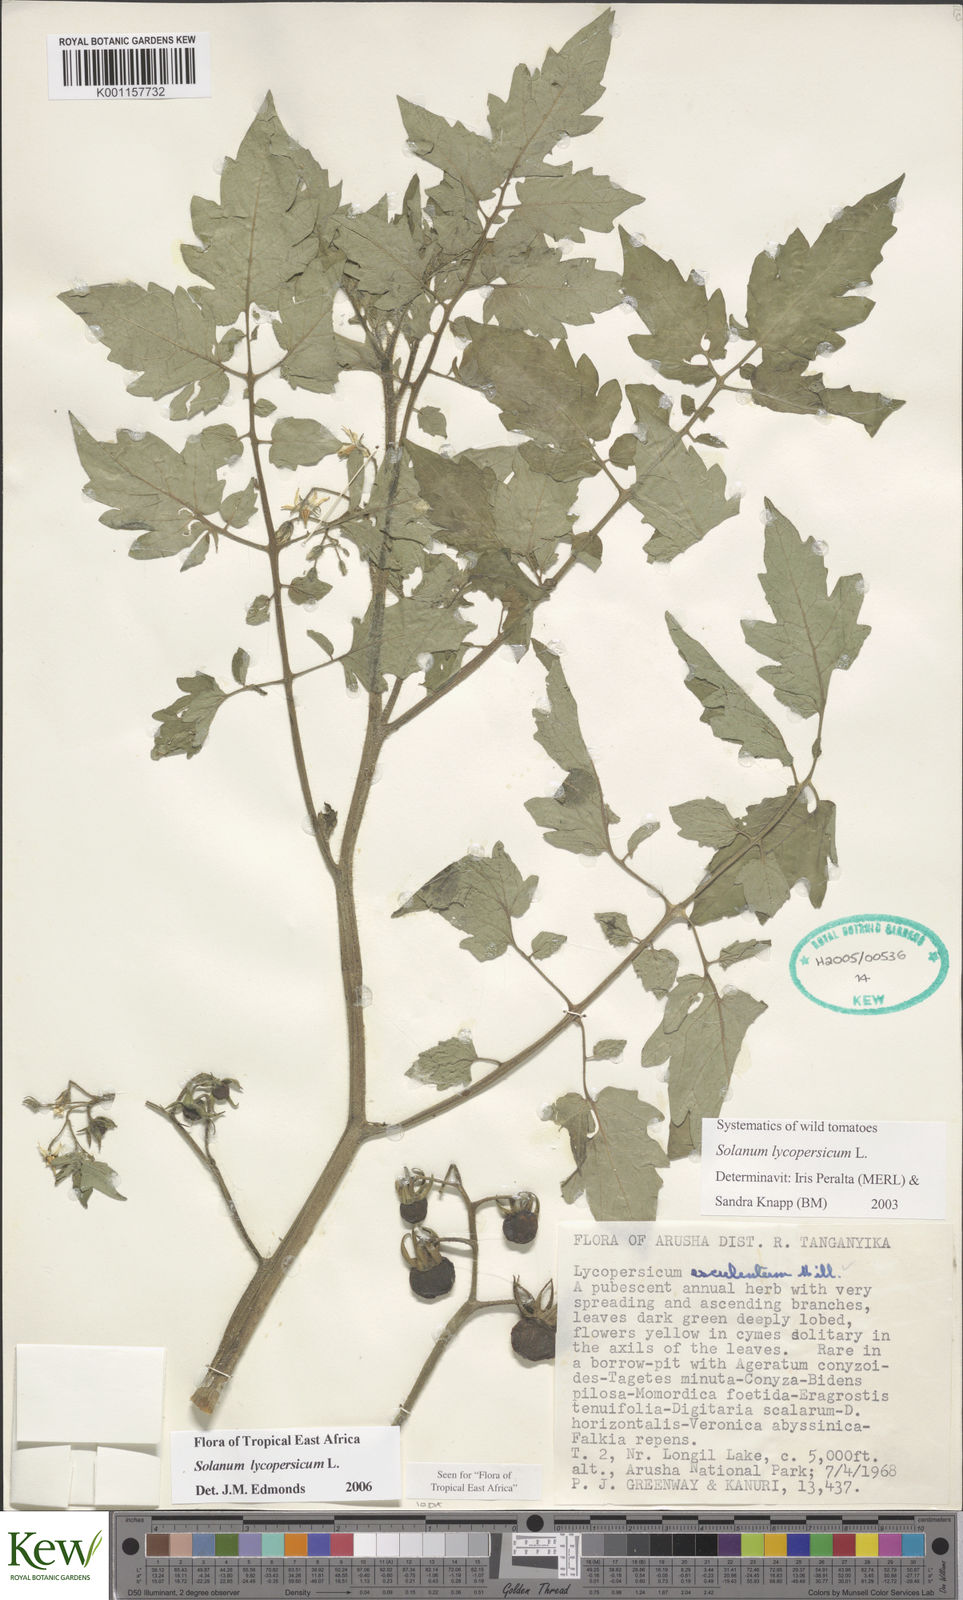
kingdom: Plantae
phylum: Tracheophyta
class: Magnoliopsida
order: Solanales
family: Solanaceae
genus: Solanum
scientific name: Solanum lycopersicum
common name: Garden tomato
